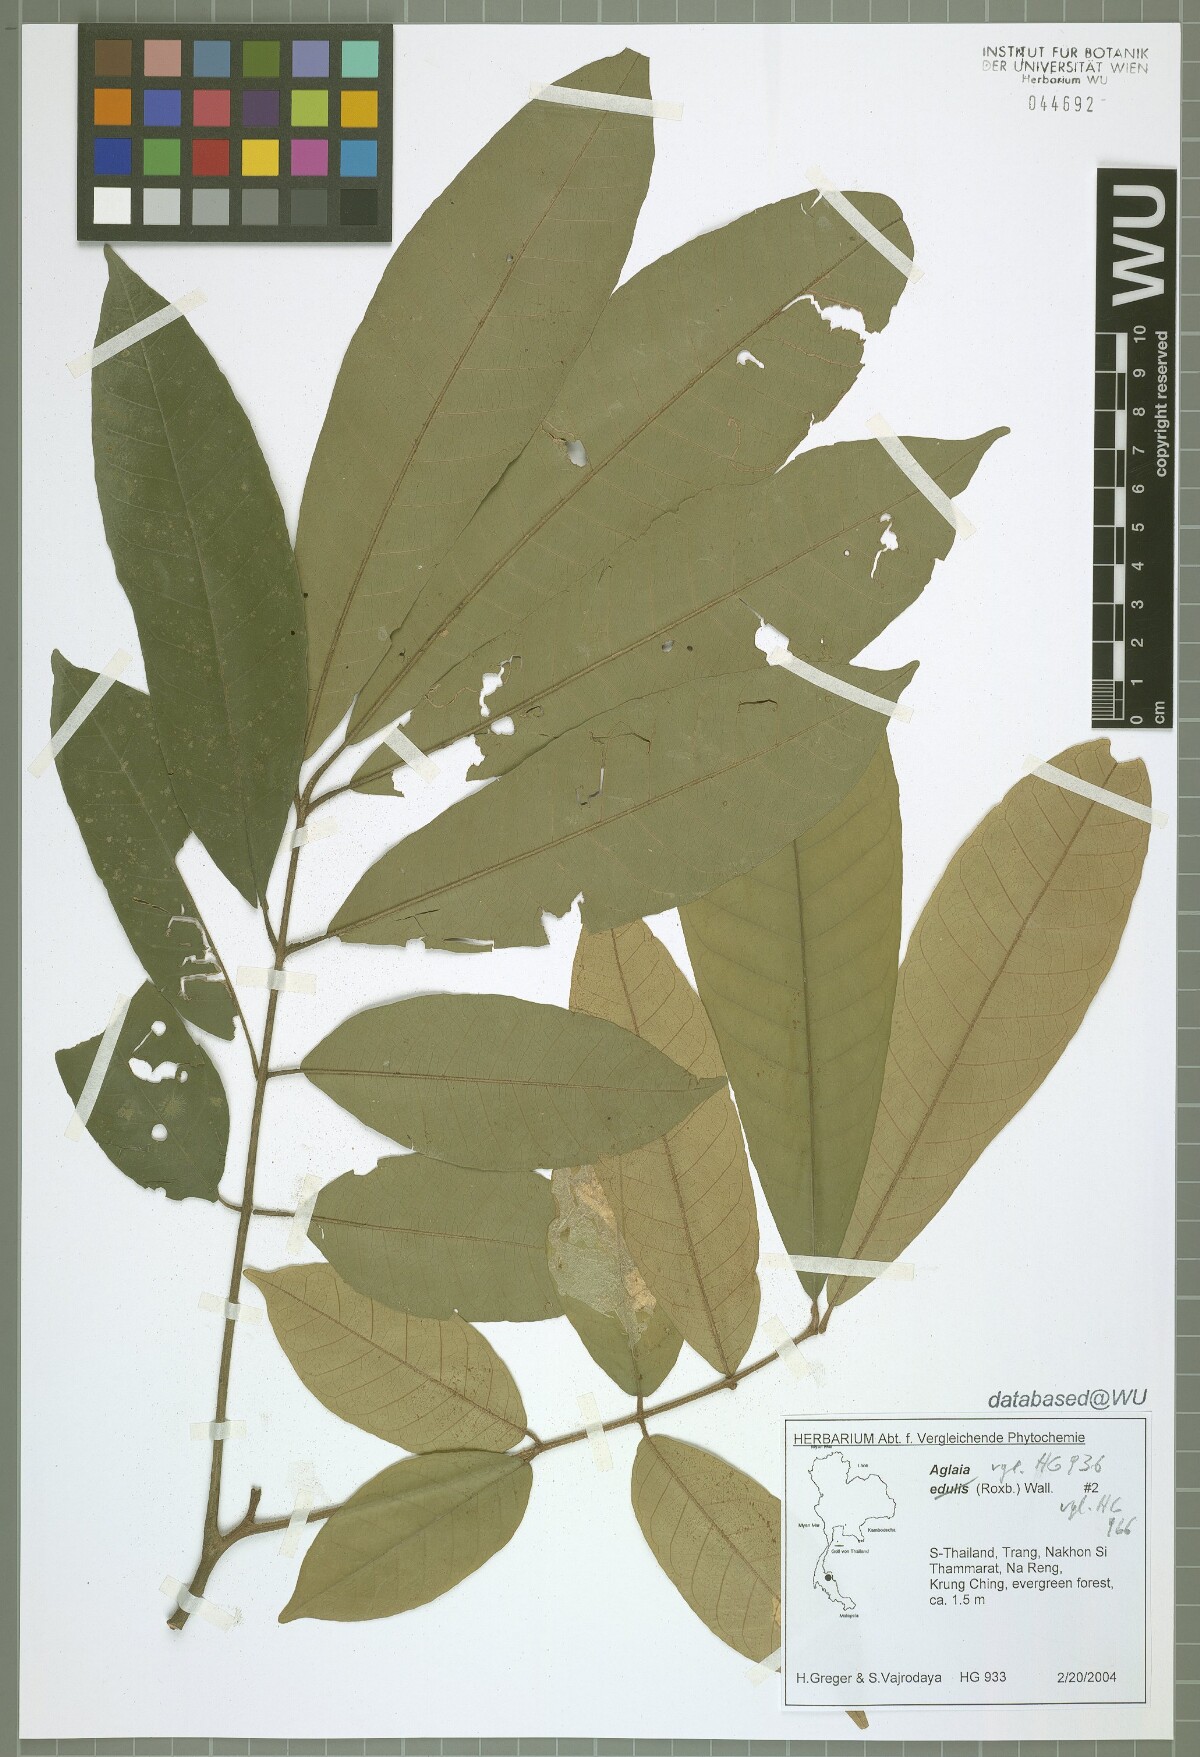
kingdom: Plantae
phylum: Tracheophyta
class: Magnoliopsida
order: Sapindales
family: Meliaceae
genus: Aglaia
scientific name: Aglaia
